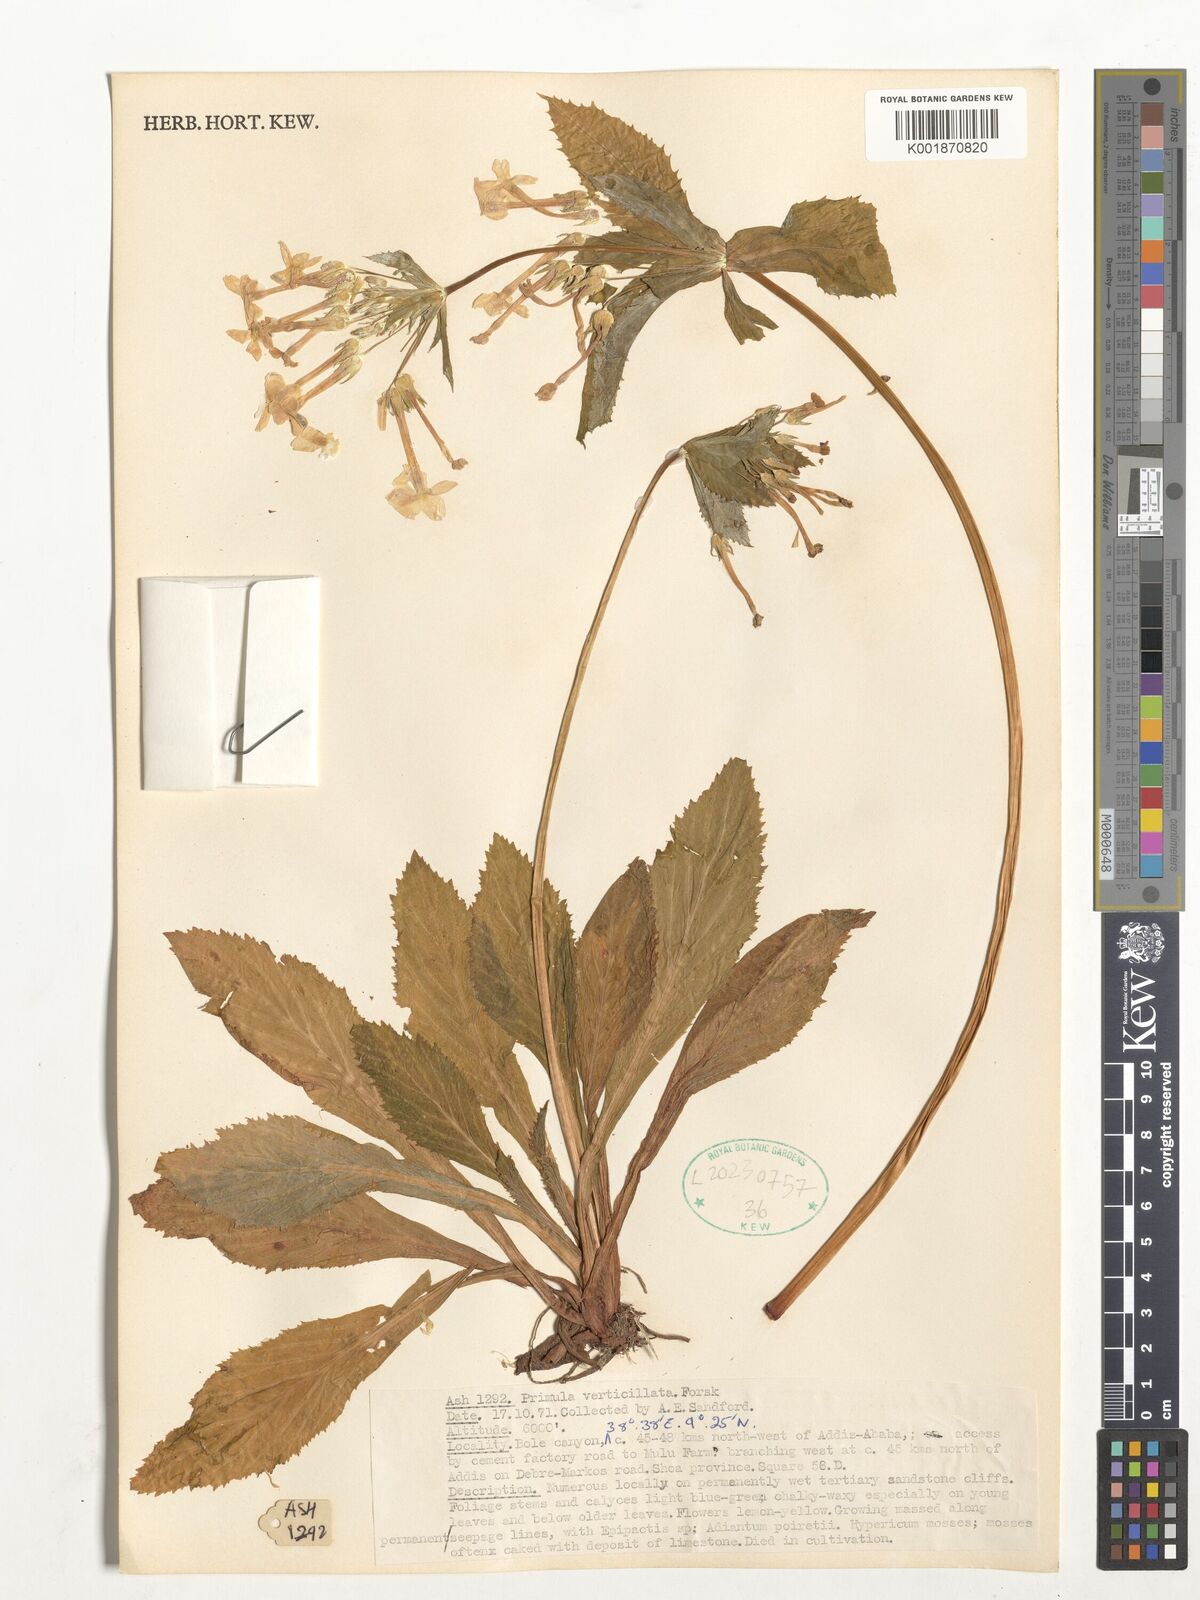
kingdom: Plantae
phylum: Tracheophyta
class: Magnoliopsida
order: Ericales
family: Primulaceae
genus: Evotrochis
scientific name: Evotrochis simensis
